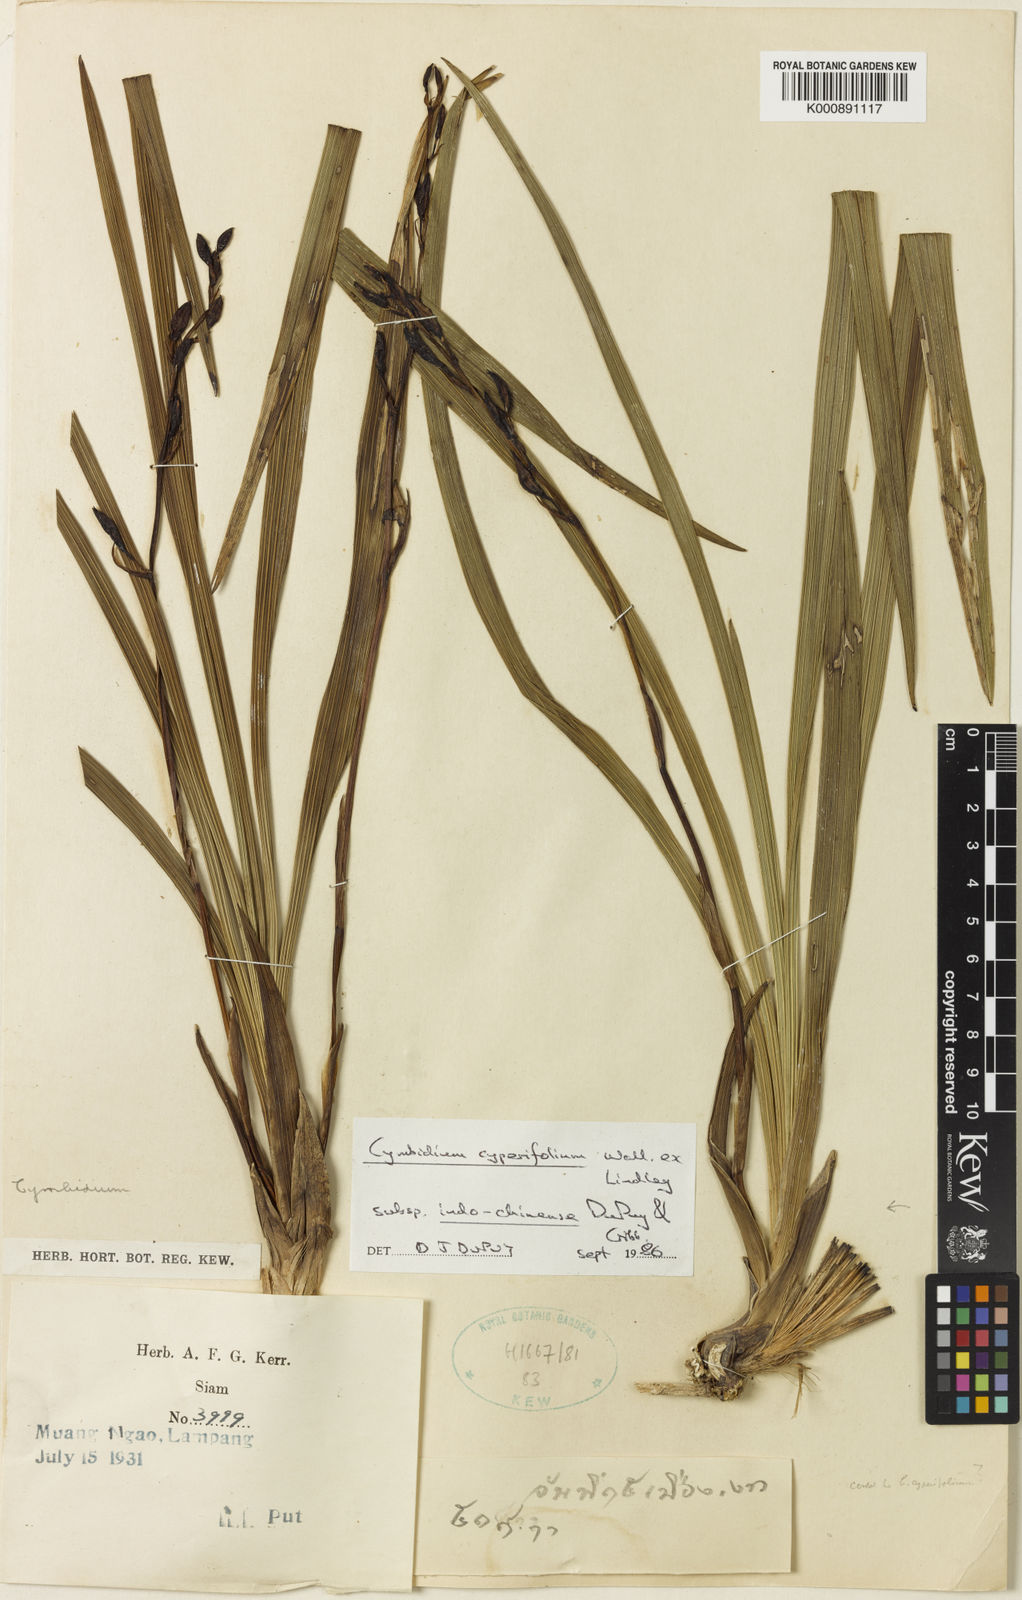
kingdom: Plantae
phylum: Tracheophyta
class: Liliopsida
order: Asparagales
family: Orchidaceae
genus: Cymbidium
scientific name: Cymbidium cyperifolium
